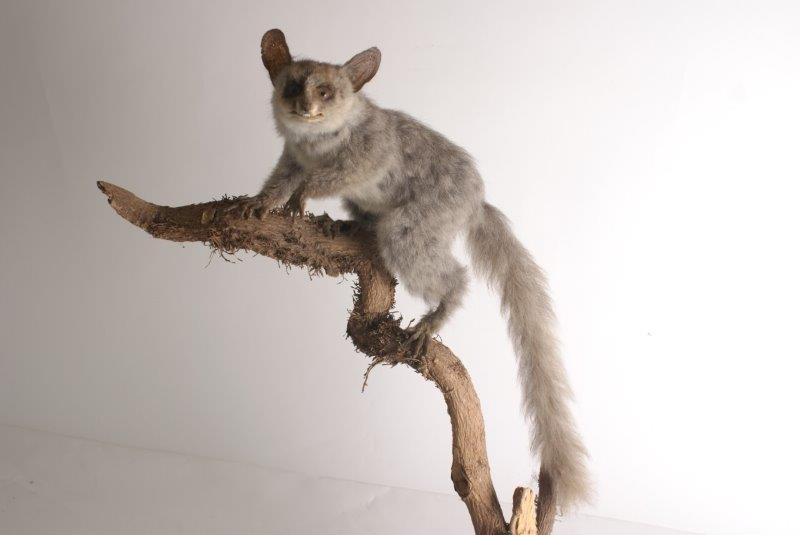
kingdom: Animalia
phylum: Chordata
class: Mammalia
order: Primates
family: Galagidae
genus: Galago
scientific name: Galago
